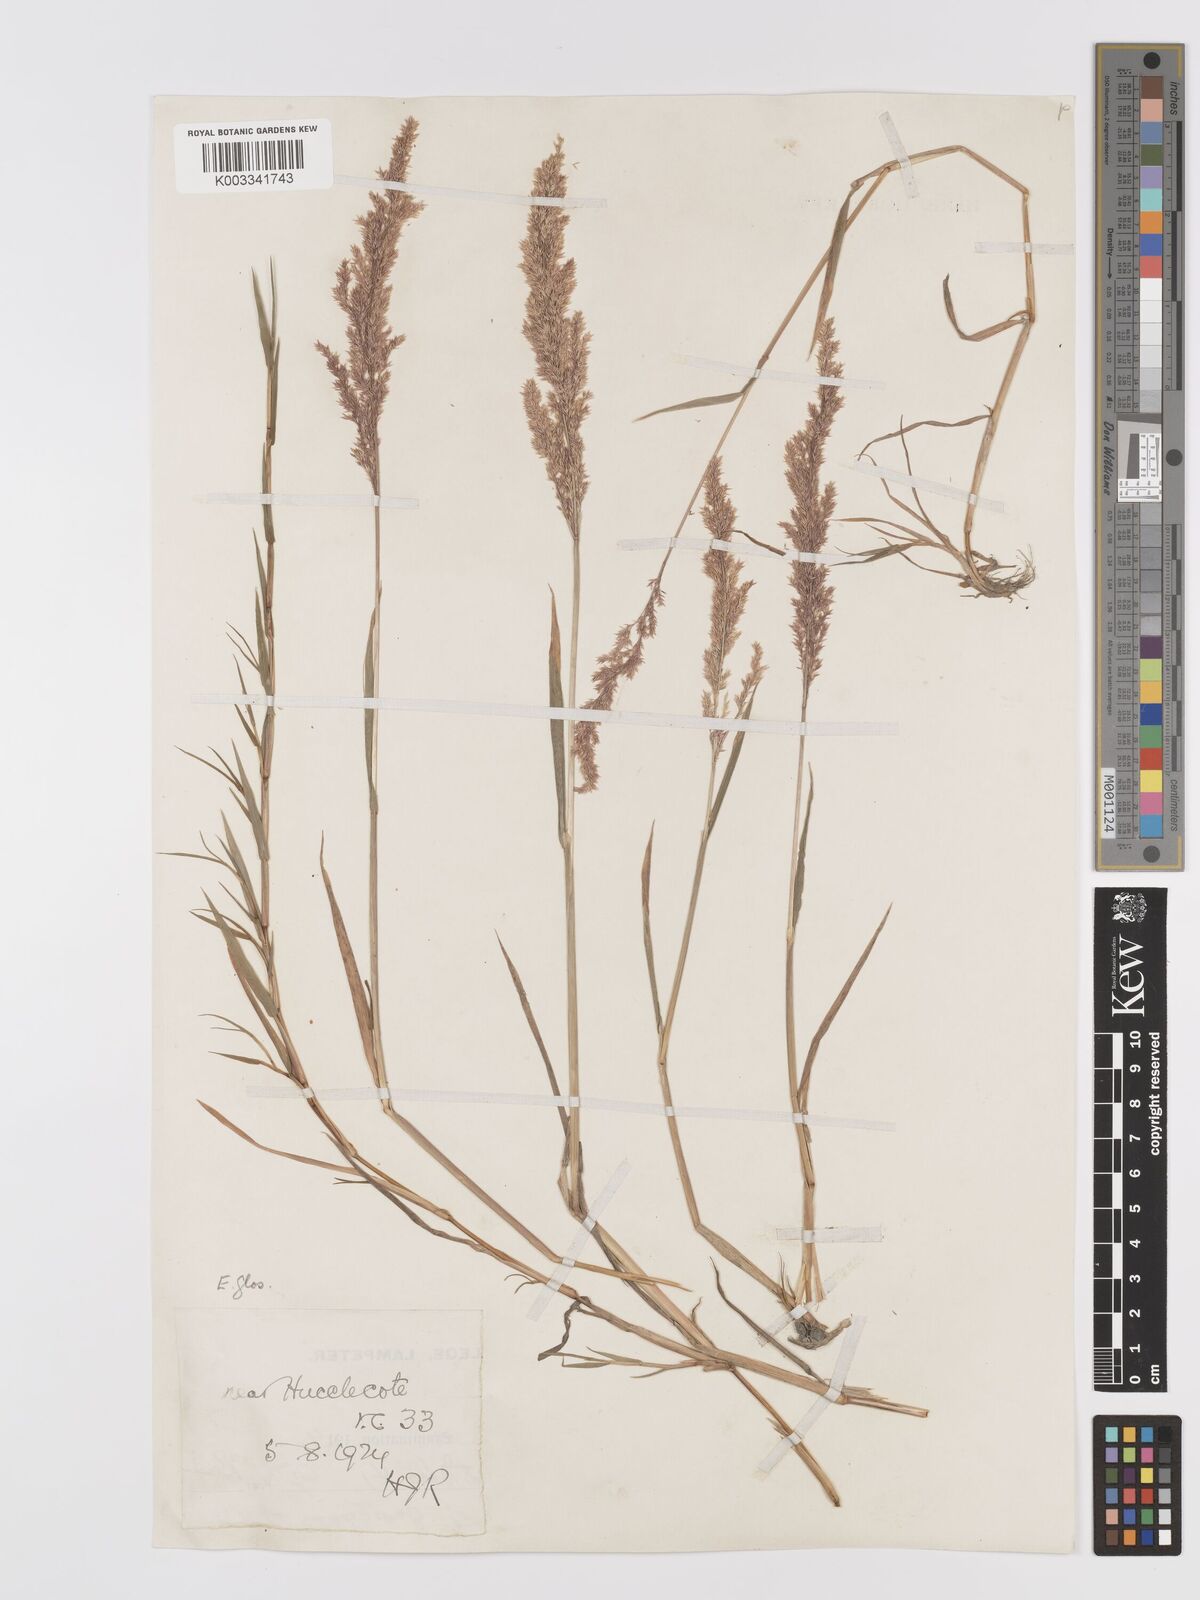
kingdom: Plantae
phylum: Tracheophyta
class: Liliopsida
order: Poales
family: Poaceae
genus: Agrostis
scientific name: Agrostis stolonifera
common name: Creeping bentgrass
